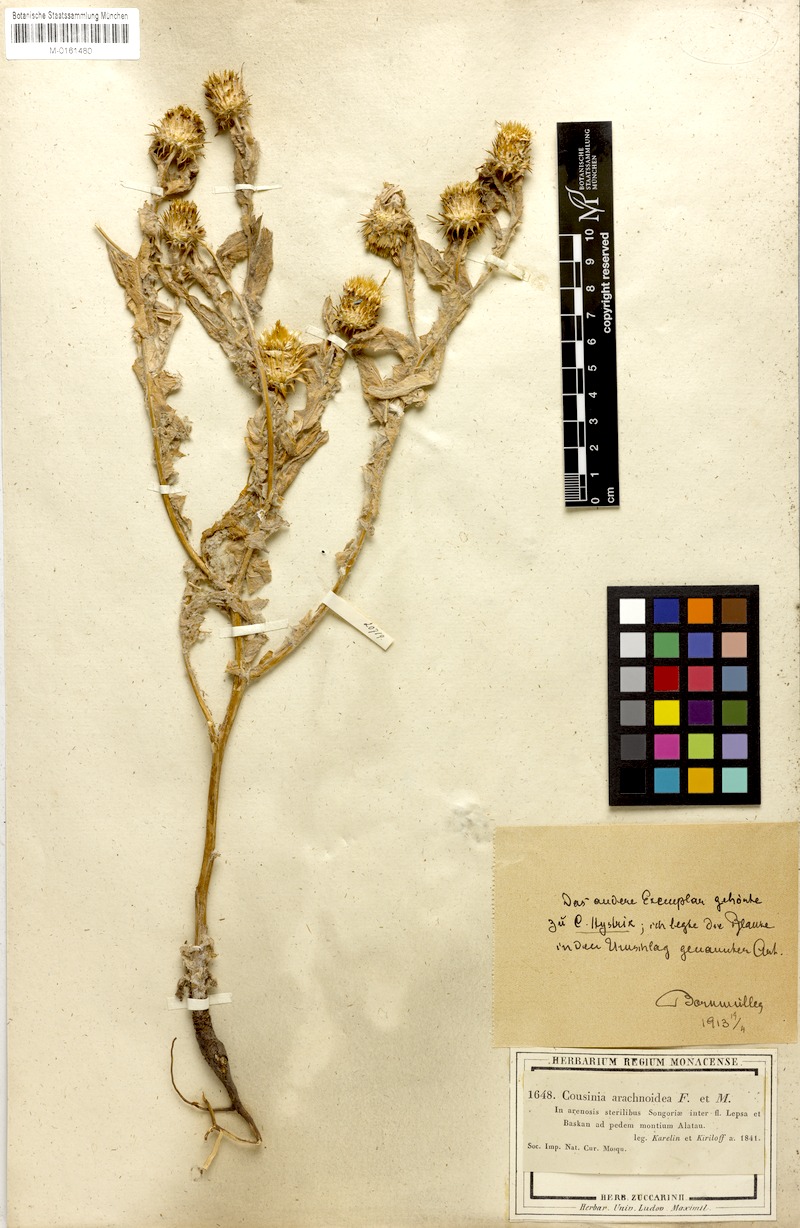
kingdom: Plantae
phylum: Tracheophyta
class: Magnoliopsida
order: Asterales
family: Asteraceae
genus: Cousinia
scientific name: Cousinia arachnoidea
